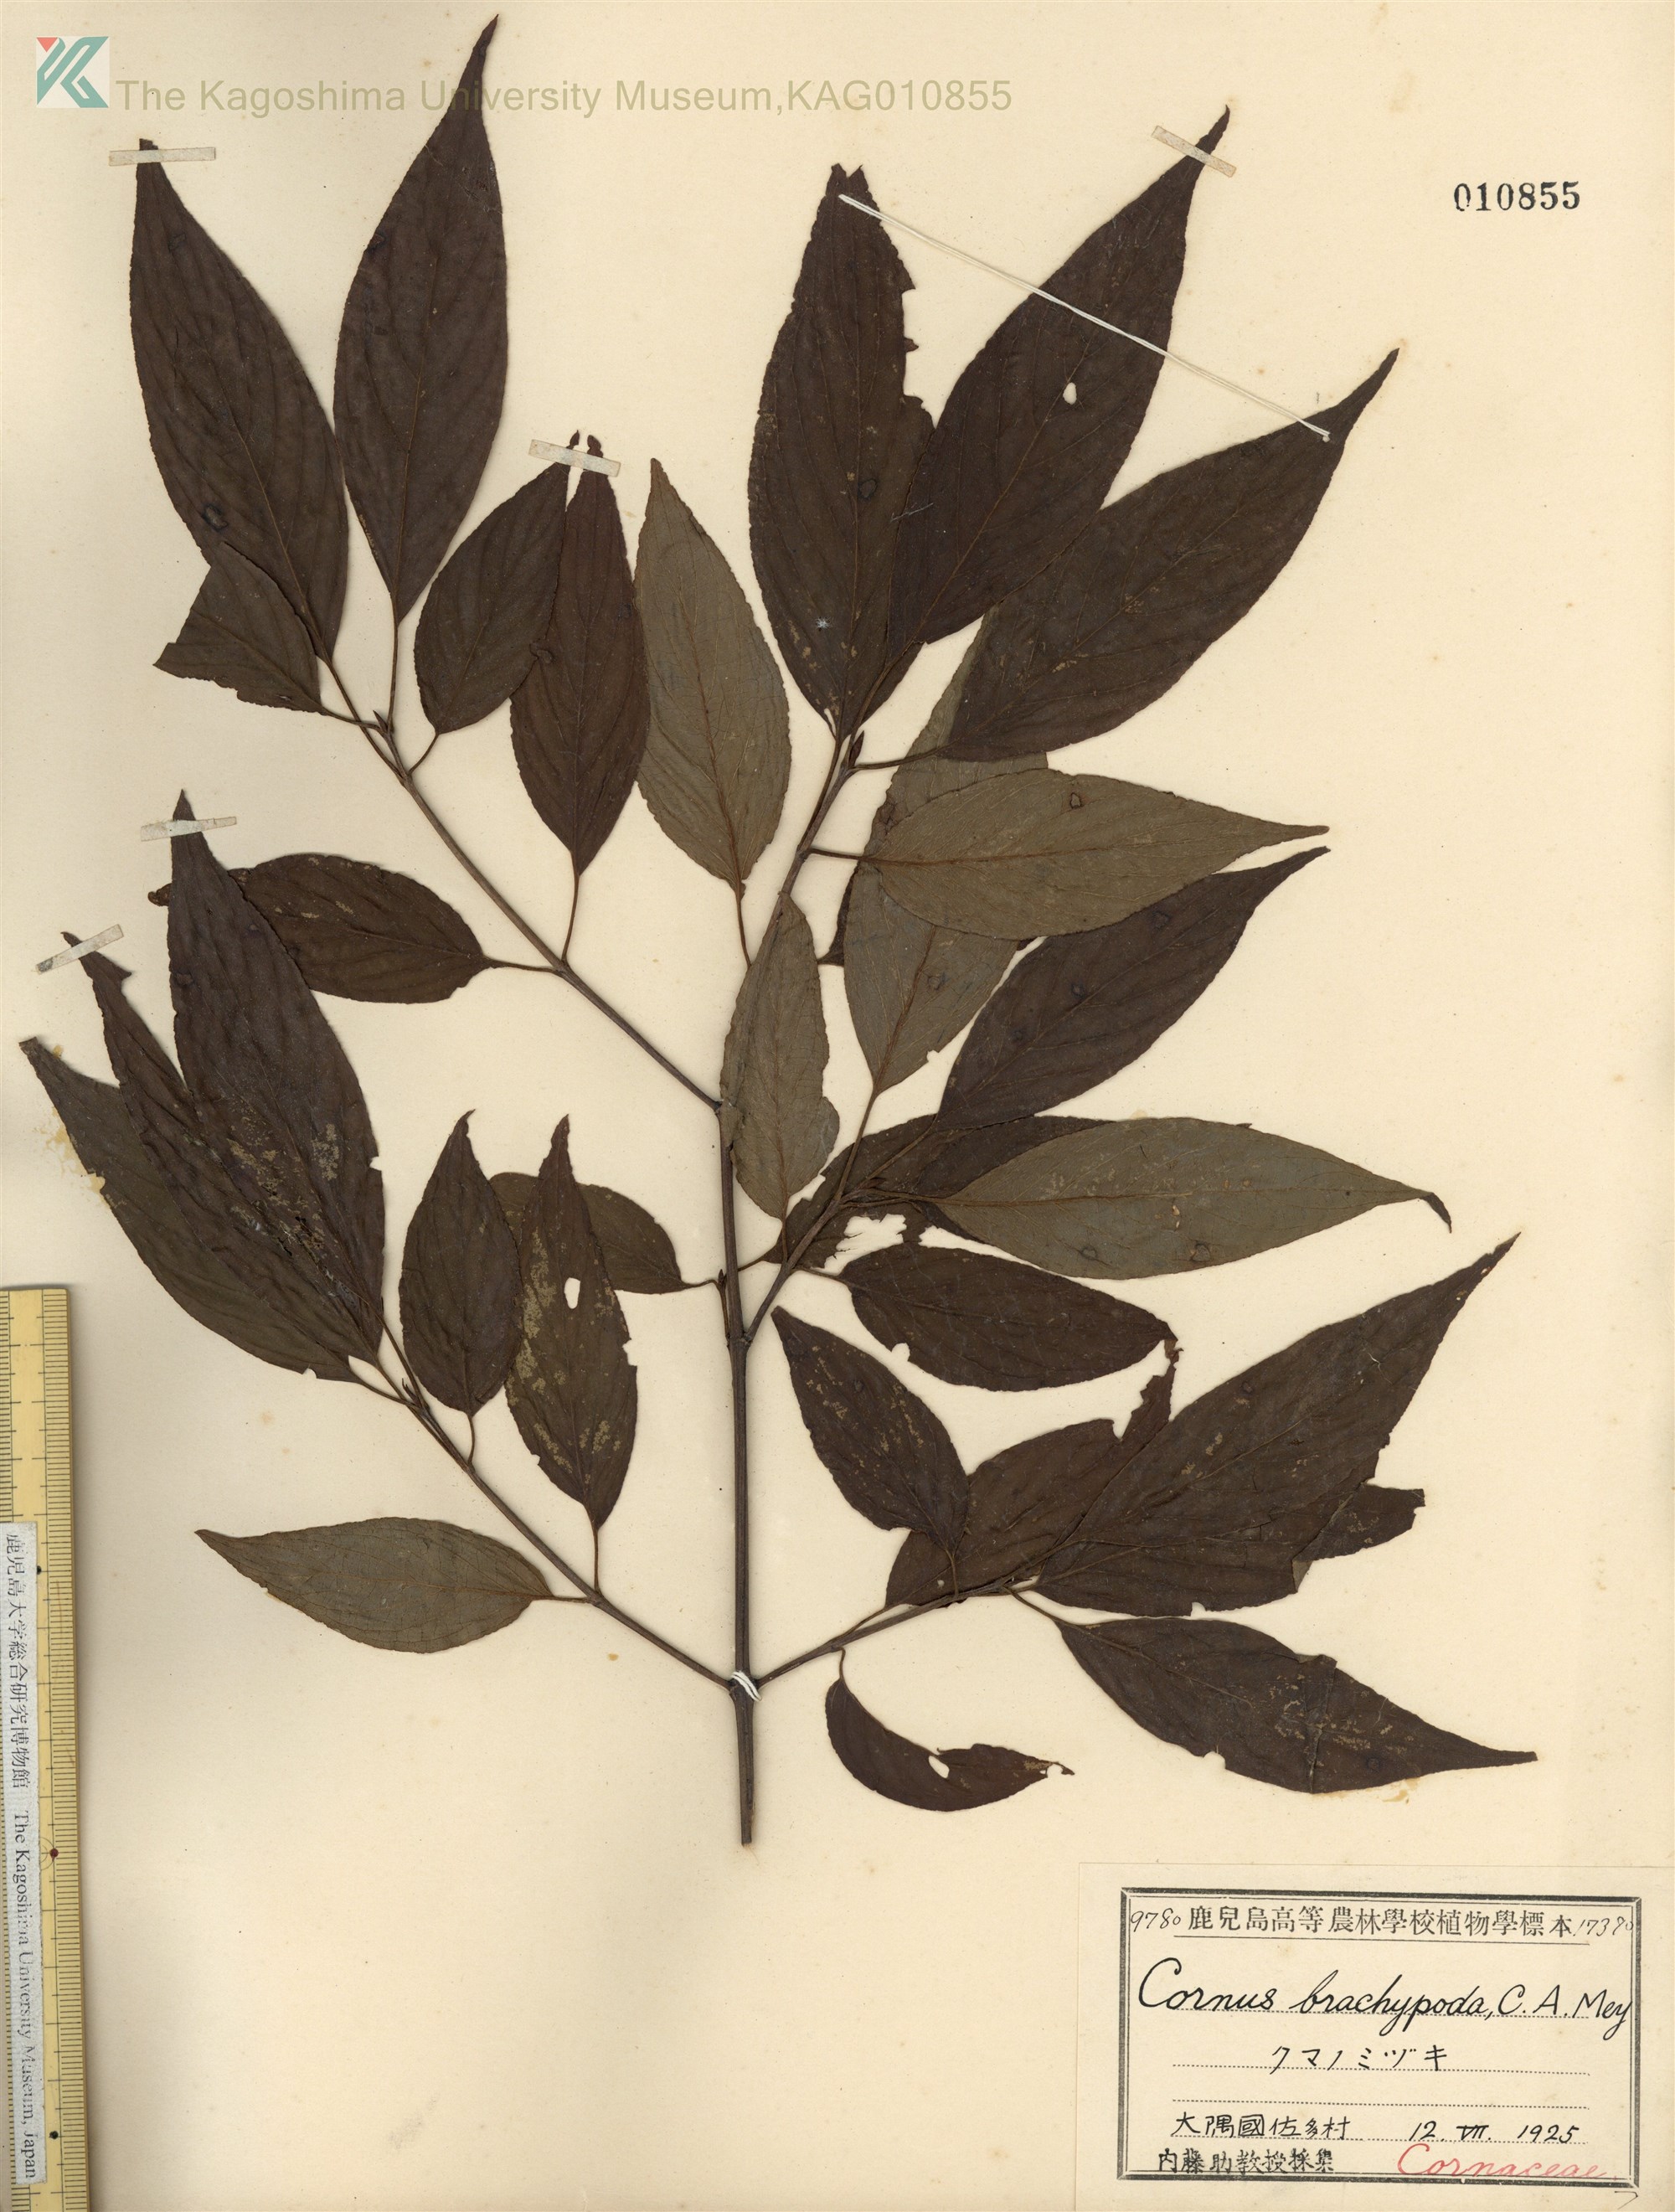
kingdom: Plantae
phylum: Tracheophyta
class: Magnoliopsida
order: Cornales
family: Cornaceae
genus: Cornus
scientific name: Cornus macrophylla
